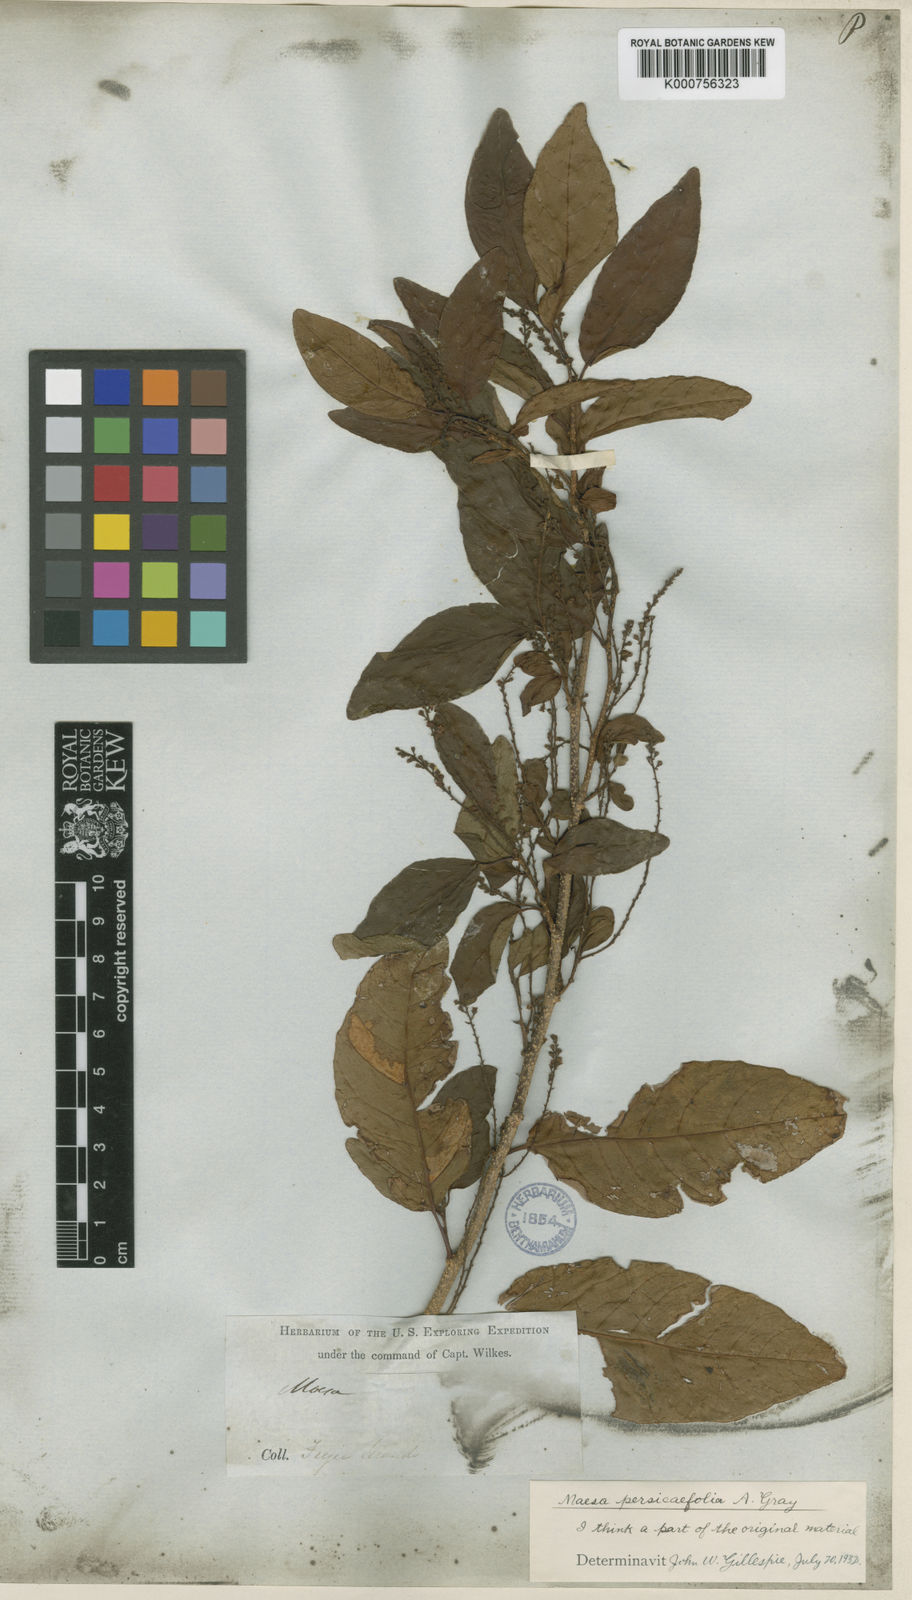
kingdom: Plantae
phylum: Tracheophyta
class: Magnoliopsida
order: Ericales
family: Primulaceae
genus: Maesa
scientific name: Maesa persicifolia
